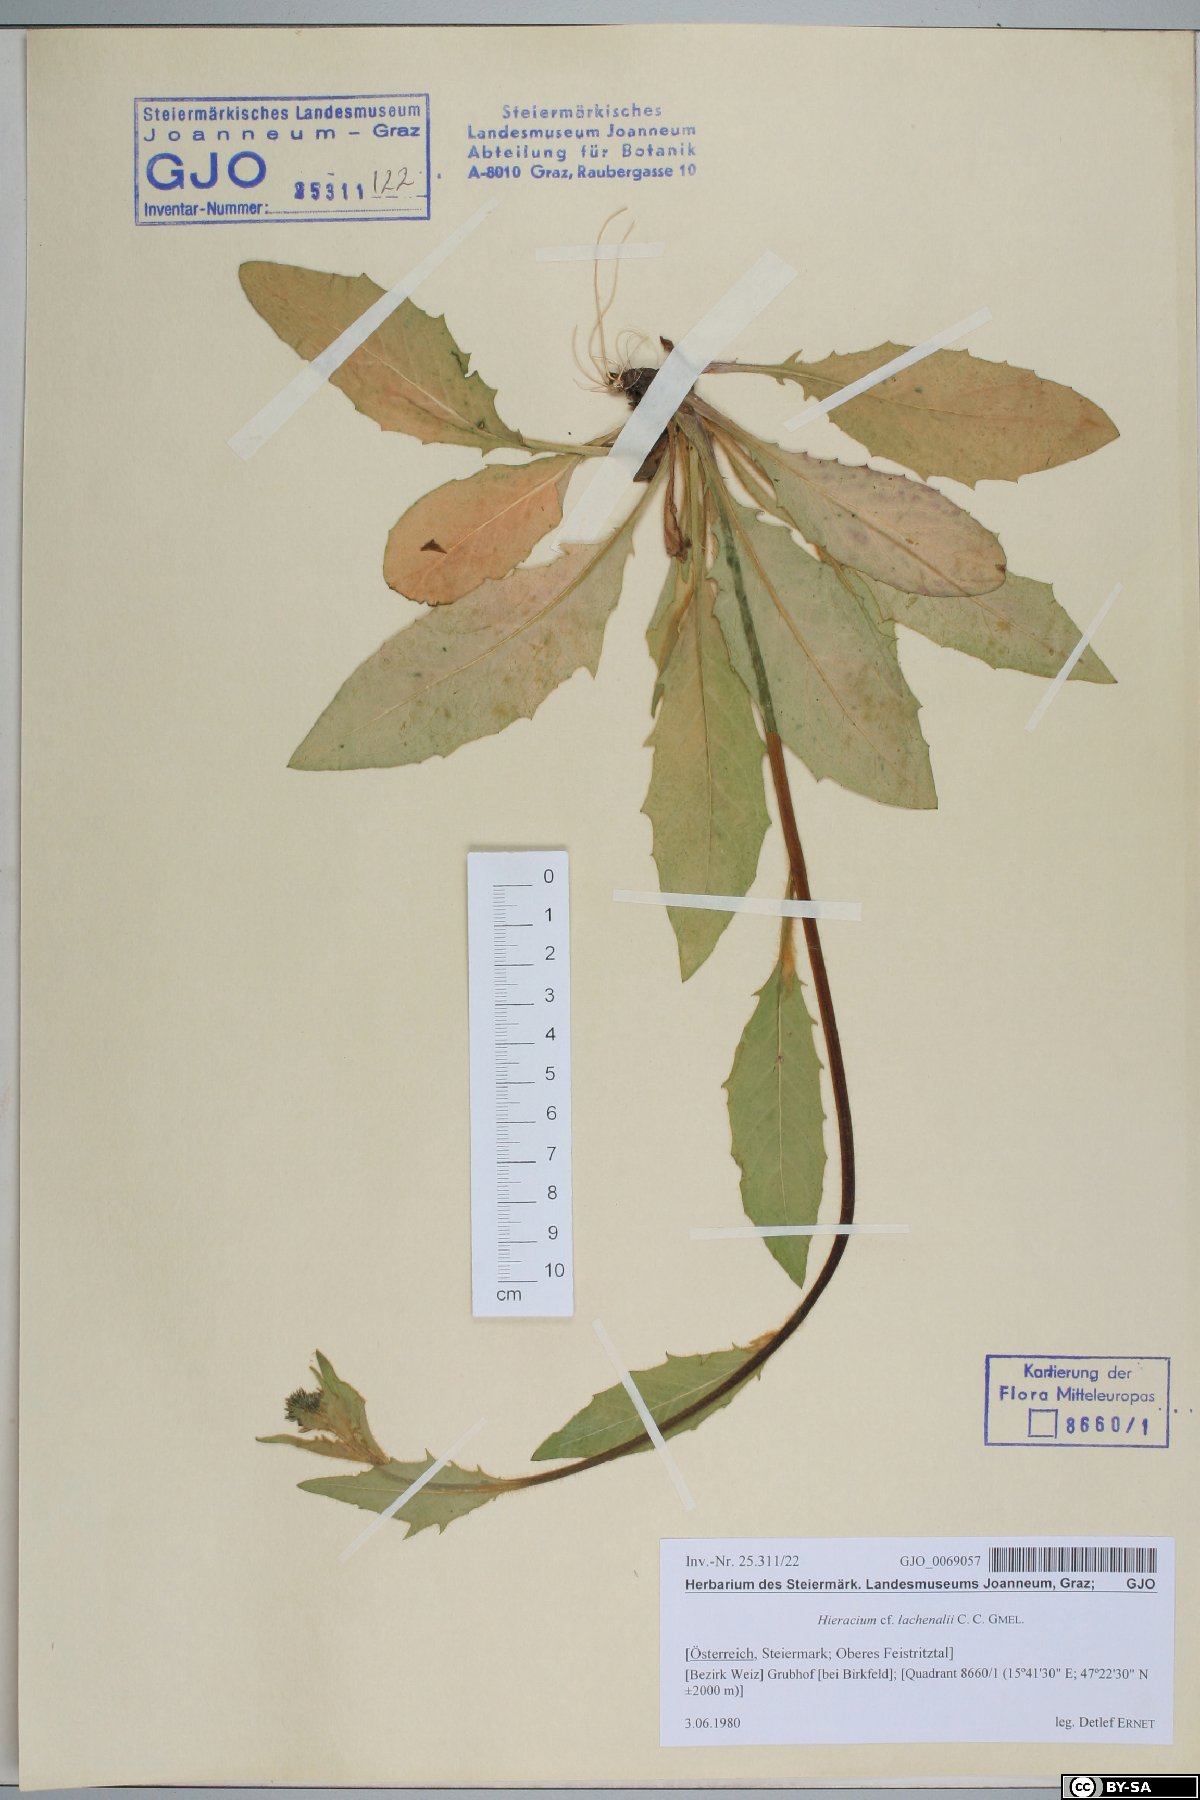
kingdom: Plantae
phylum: Tracheophyta
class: Magnoliopsida
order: Asterales
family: Asteraceae
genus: Hieracium
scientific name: Hieracium lachenalii
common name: Common hawkweed
